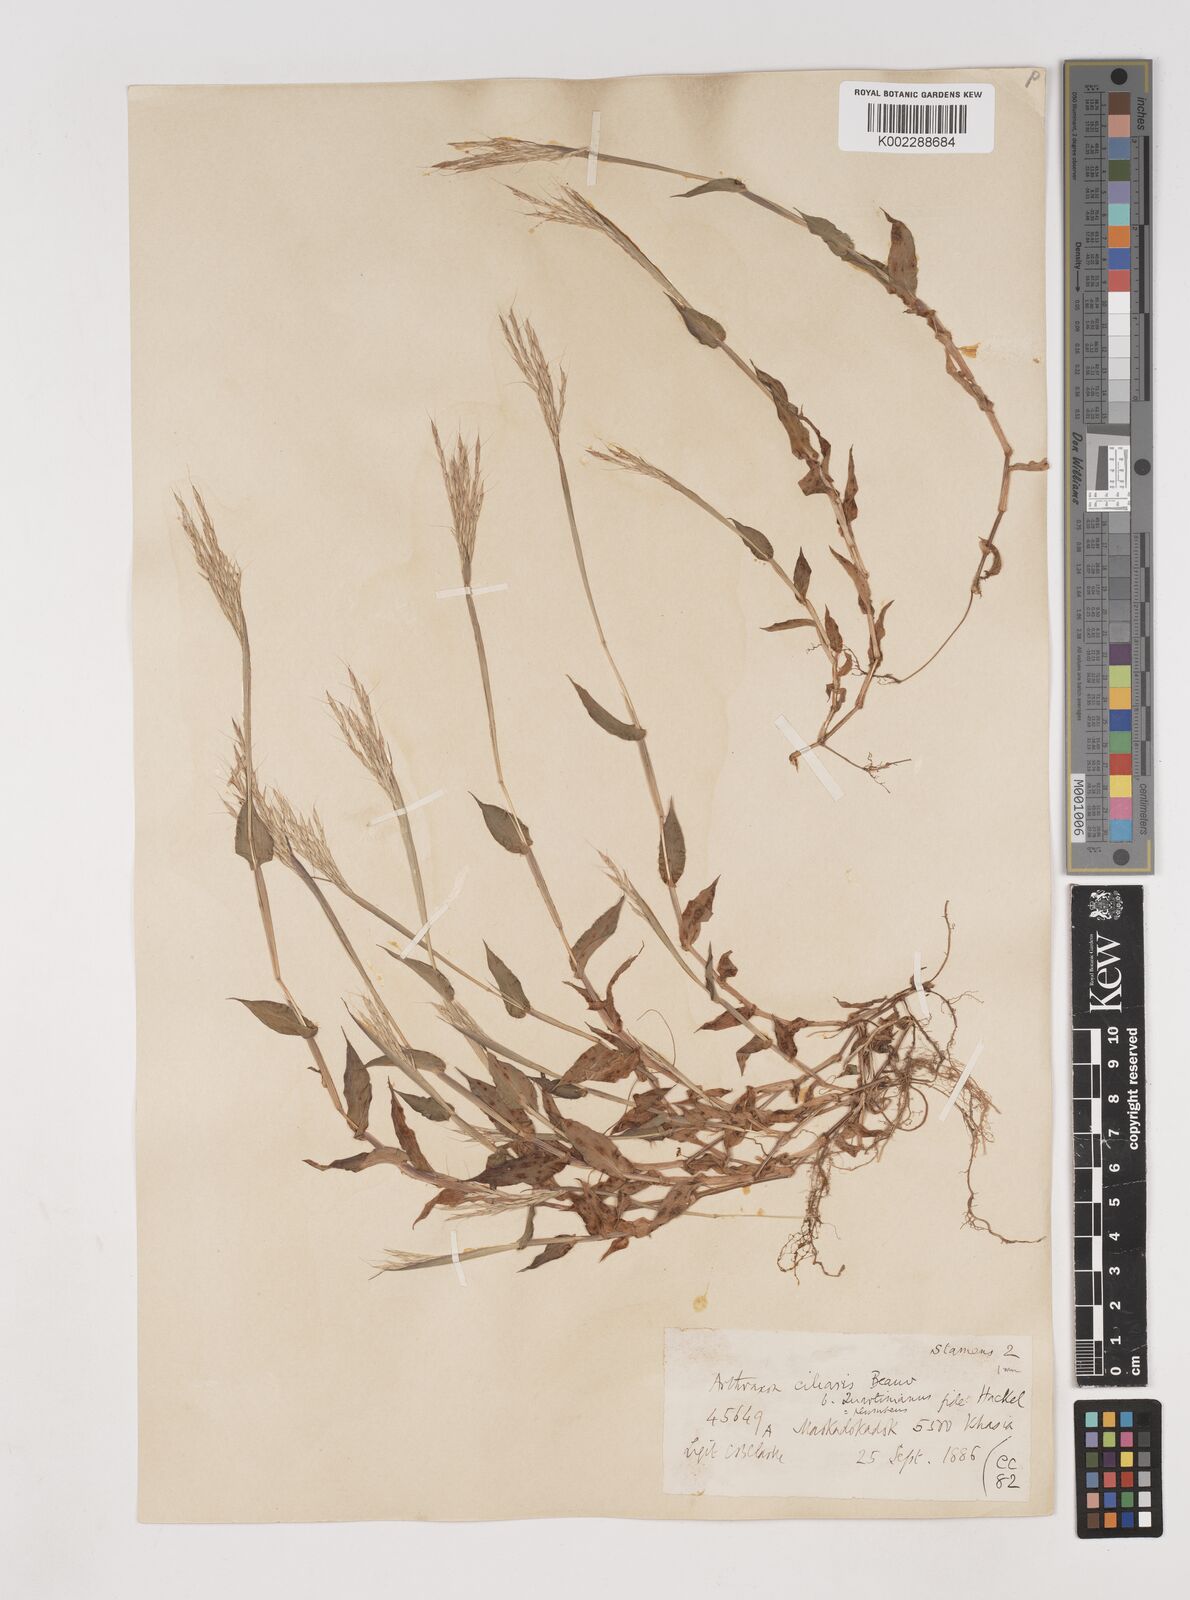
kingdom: Plantae
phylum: Tracheophyta
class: Liliopsida
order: Poales
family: Poaceae
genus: Arthraxon
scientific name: Arthraxon hispidus
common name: Small carpgrass
